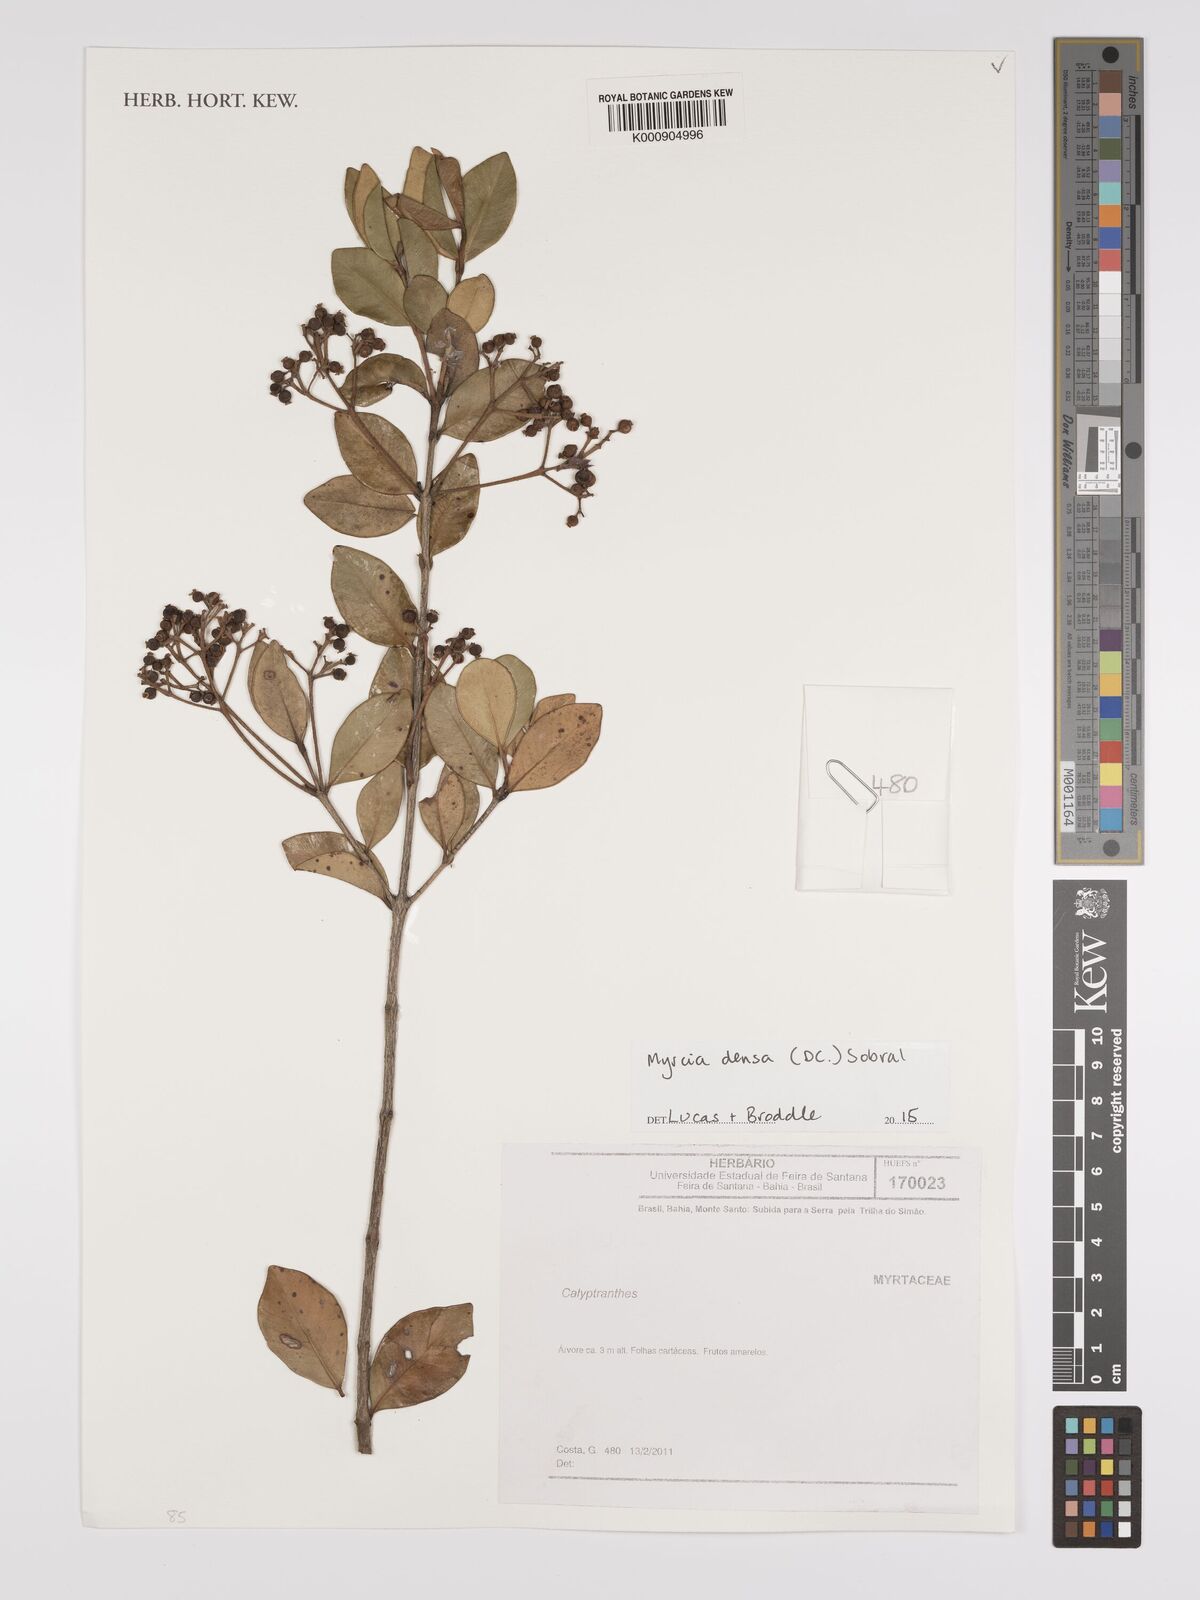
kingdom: Plantae
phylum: Tracheophyta
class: Magnoliopsida
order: Myrtales
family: Myrtaceae
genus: Myrcia
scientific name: Myrcia densa
